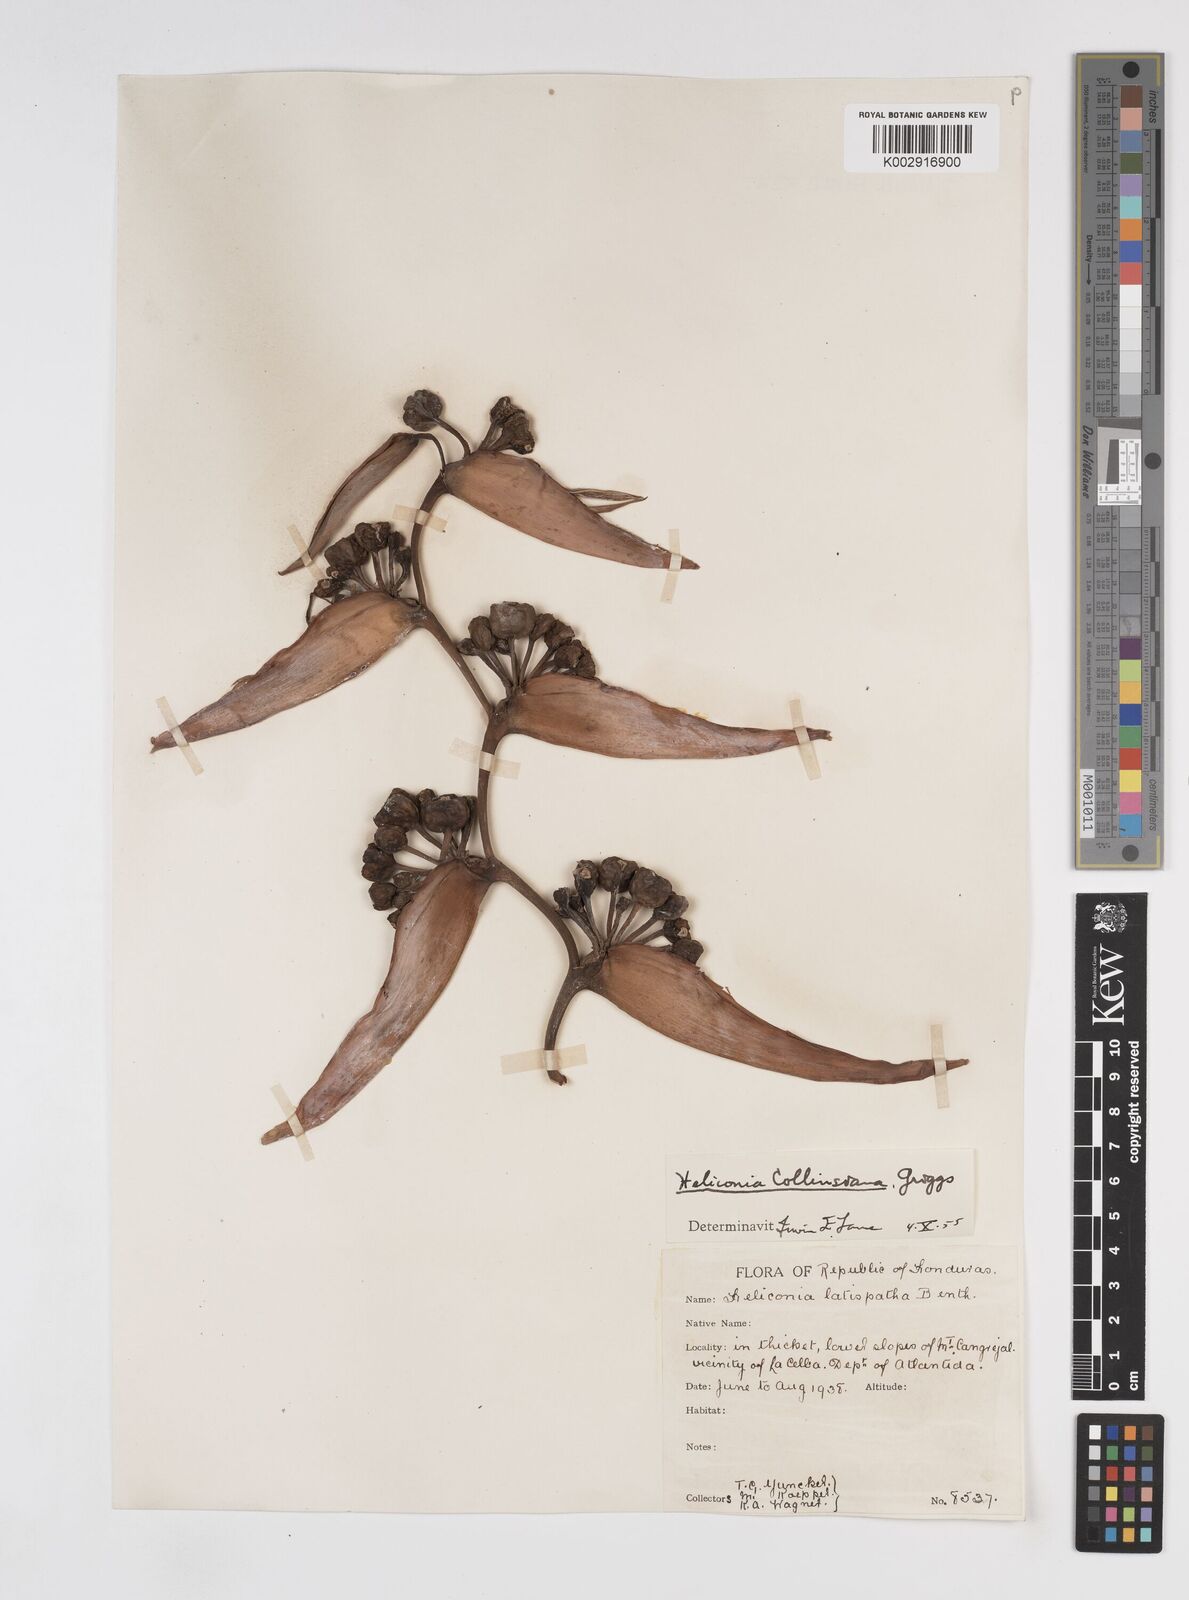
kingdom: Plantae
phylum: Tracheophyta
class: Liliopsida
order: Zingiberales
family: Heliconiaceae
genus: Heliconia
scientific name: Heliconia collinsiana
